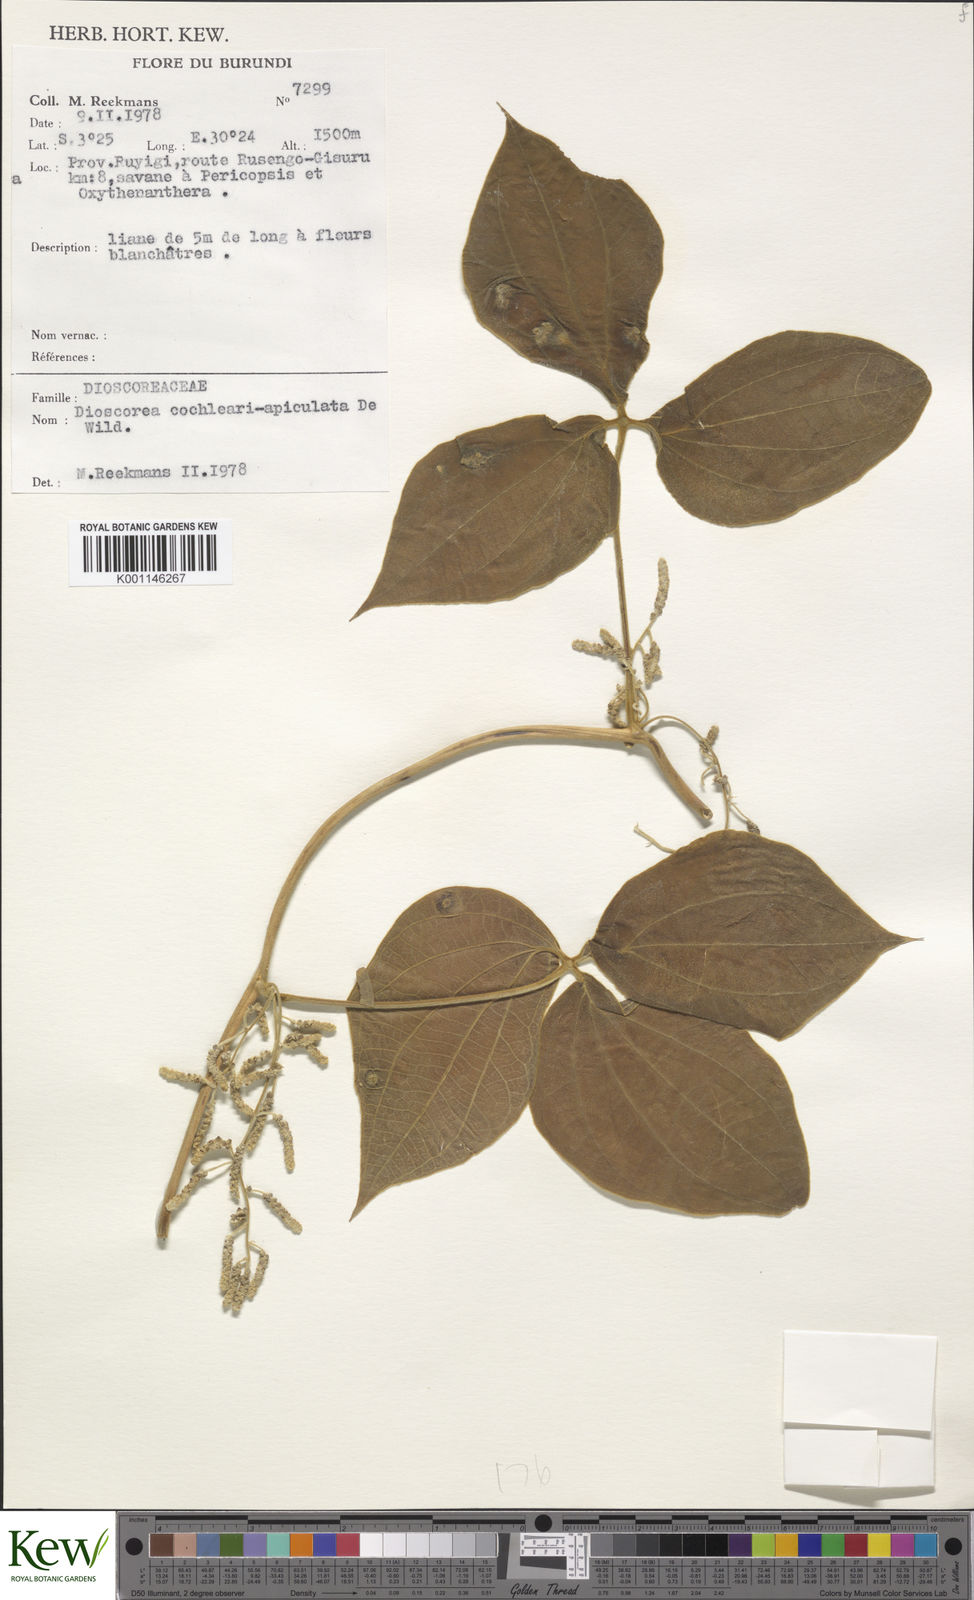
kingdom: Plantae
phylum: Tracheophyta
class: Liliopsida
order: Dioscoreales
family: Dioscoreaceae
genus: Dioscorea
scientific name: Dioscorea cochleariapiculata
